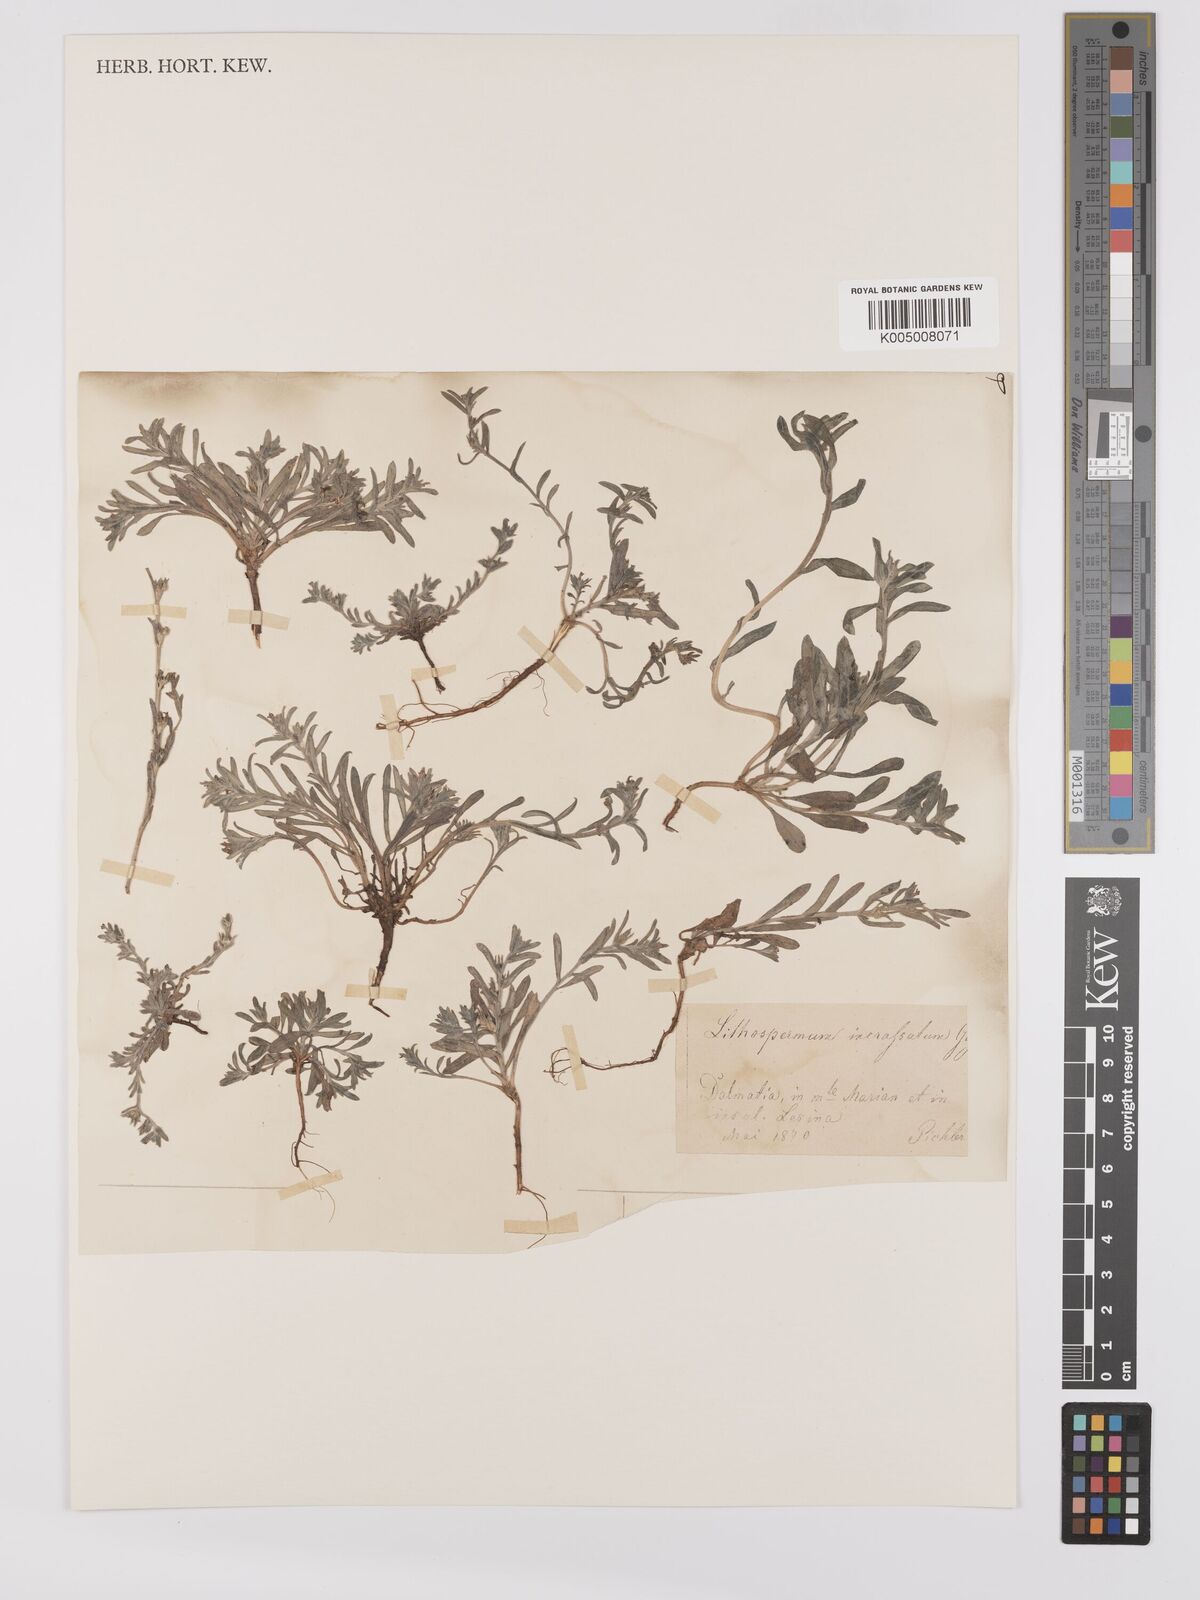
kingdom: Plantae
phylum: Tracheophyta
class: Magnoliopsida
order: Boraginales
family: Boraginaceae
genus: Buglossoides
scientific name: Buglossoides incrassata
